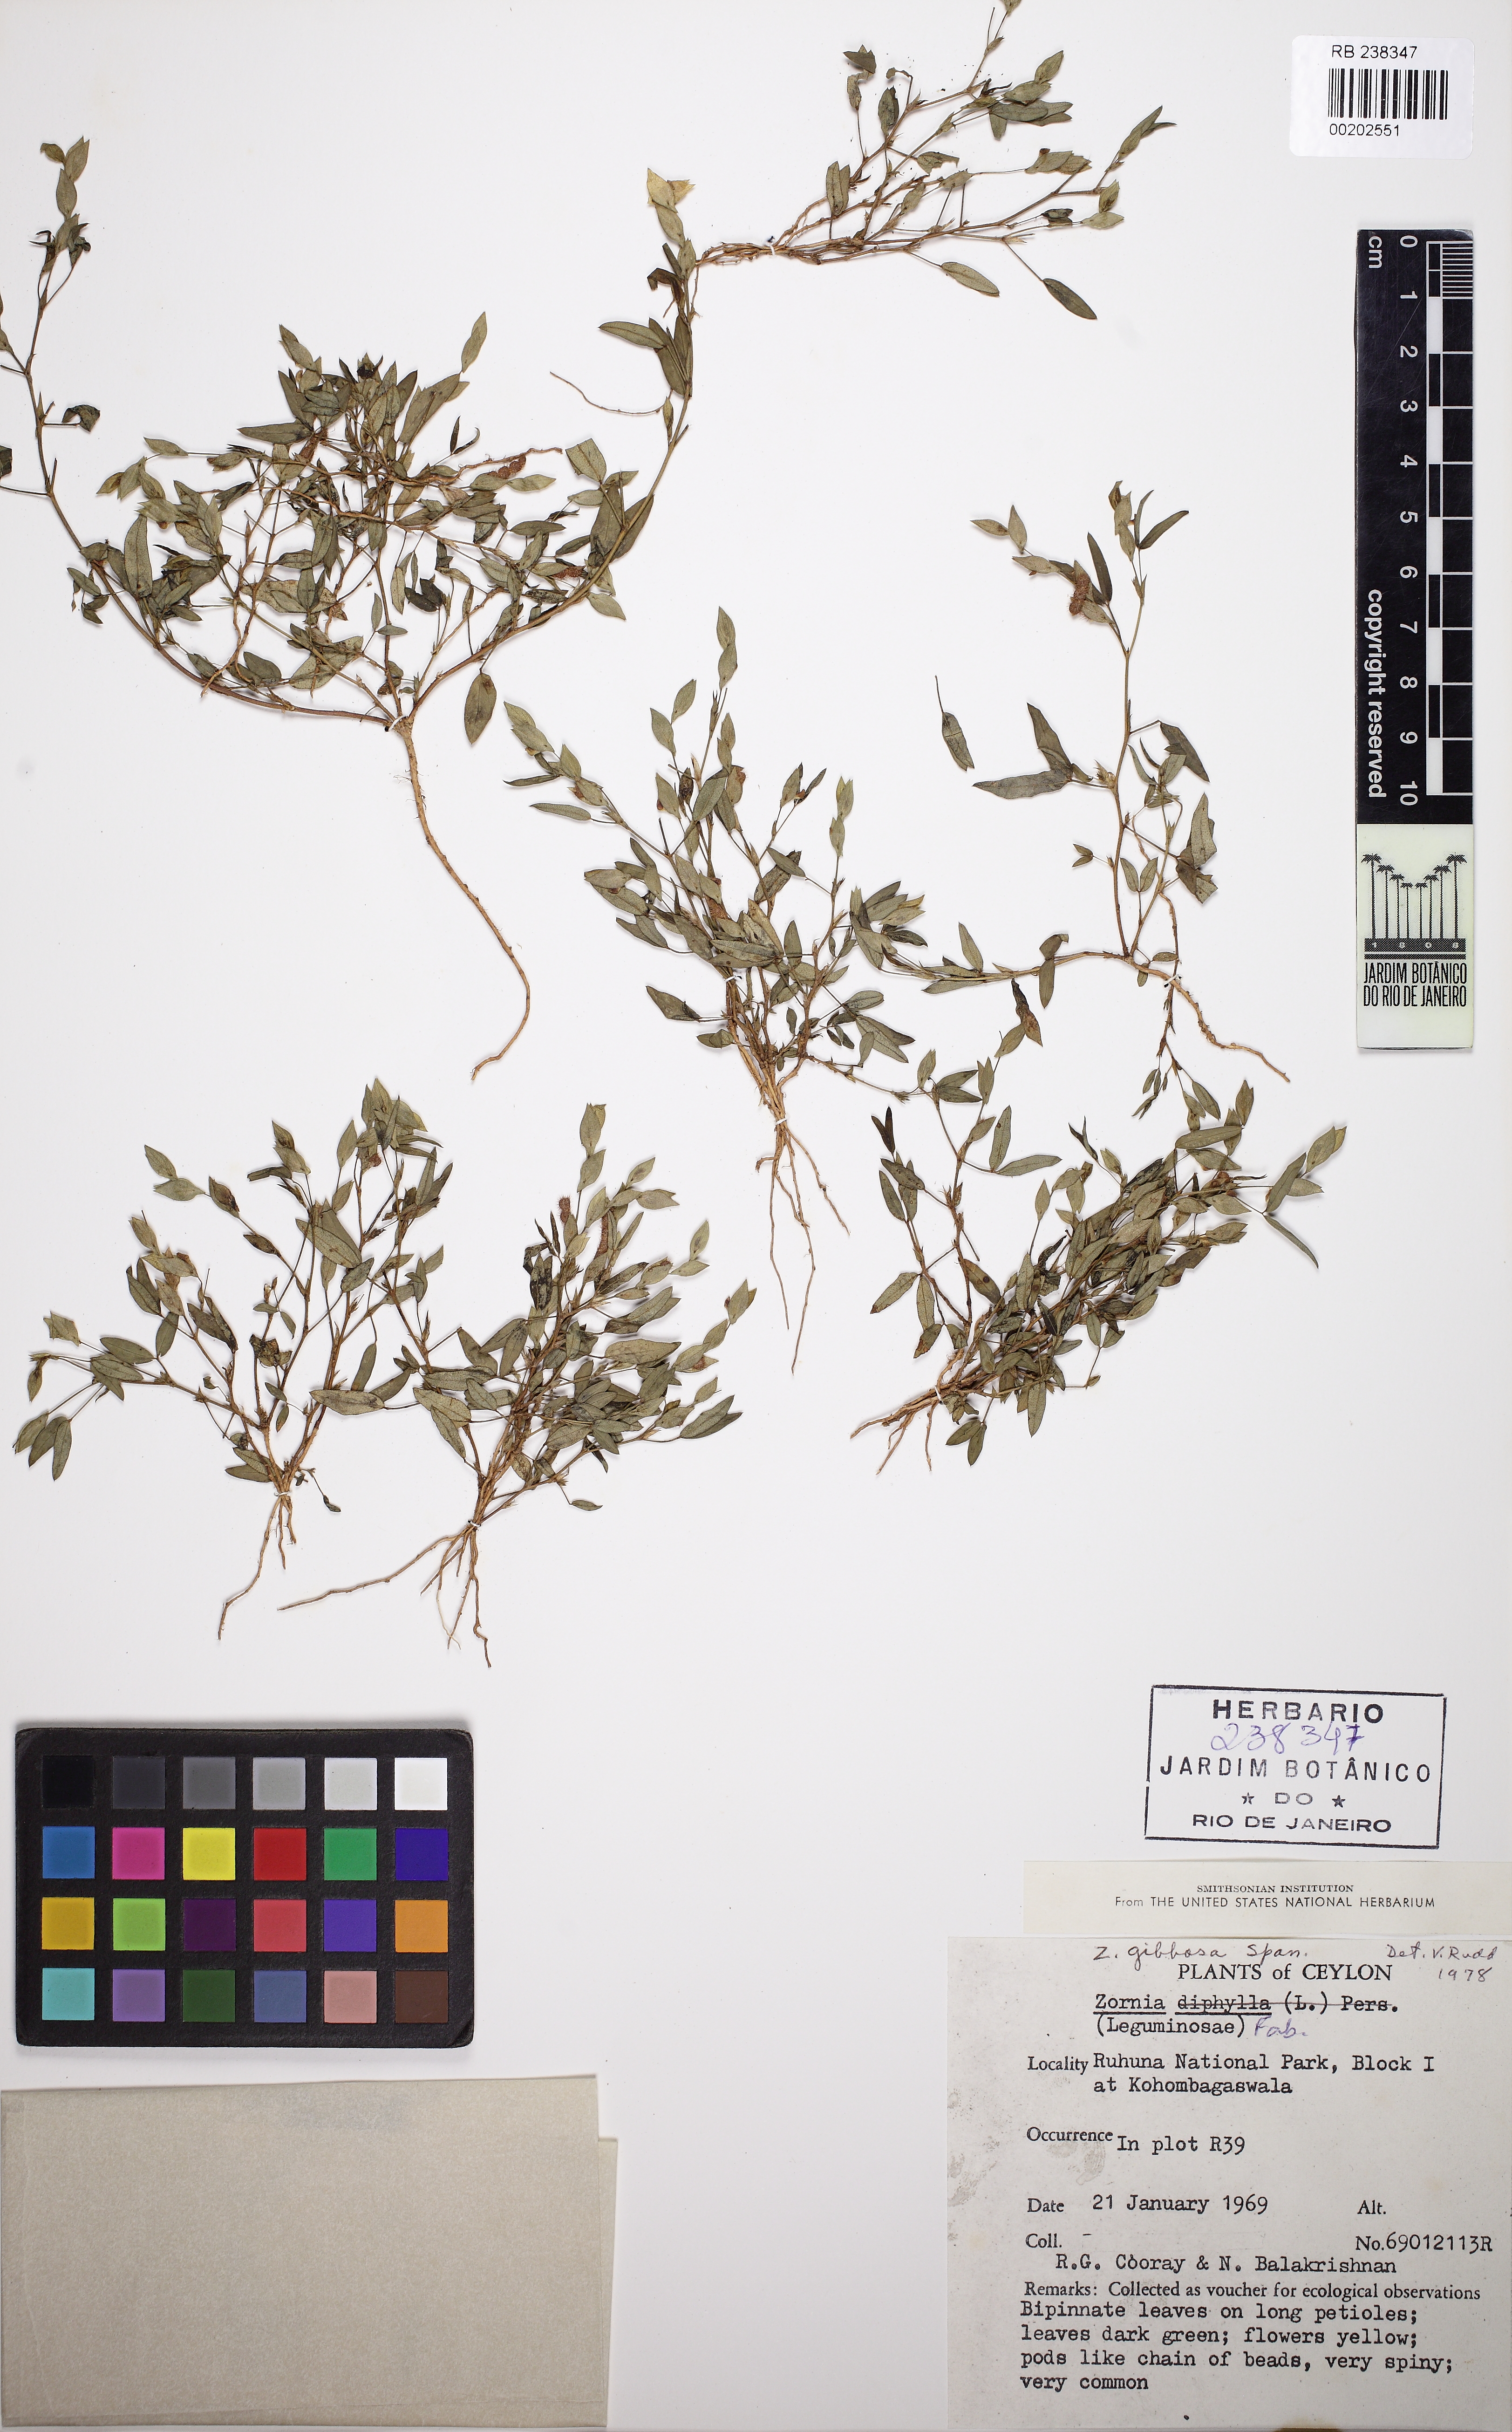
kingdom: Plantae
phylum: Tracheophyta
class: Magnoliopsida
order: Fabales
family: Fabaceae
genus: Zornia
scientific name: Zornia gibbosa
